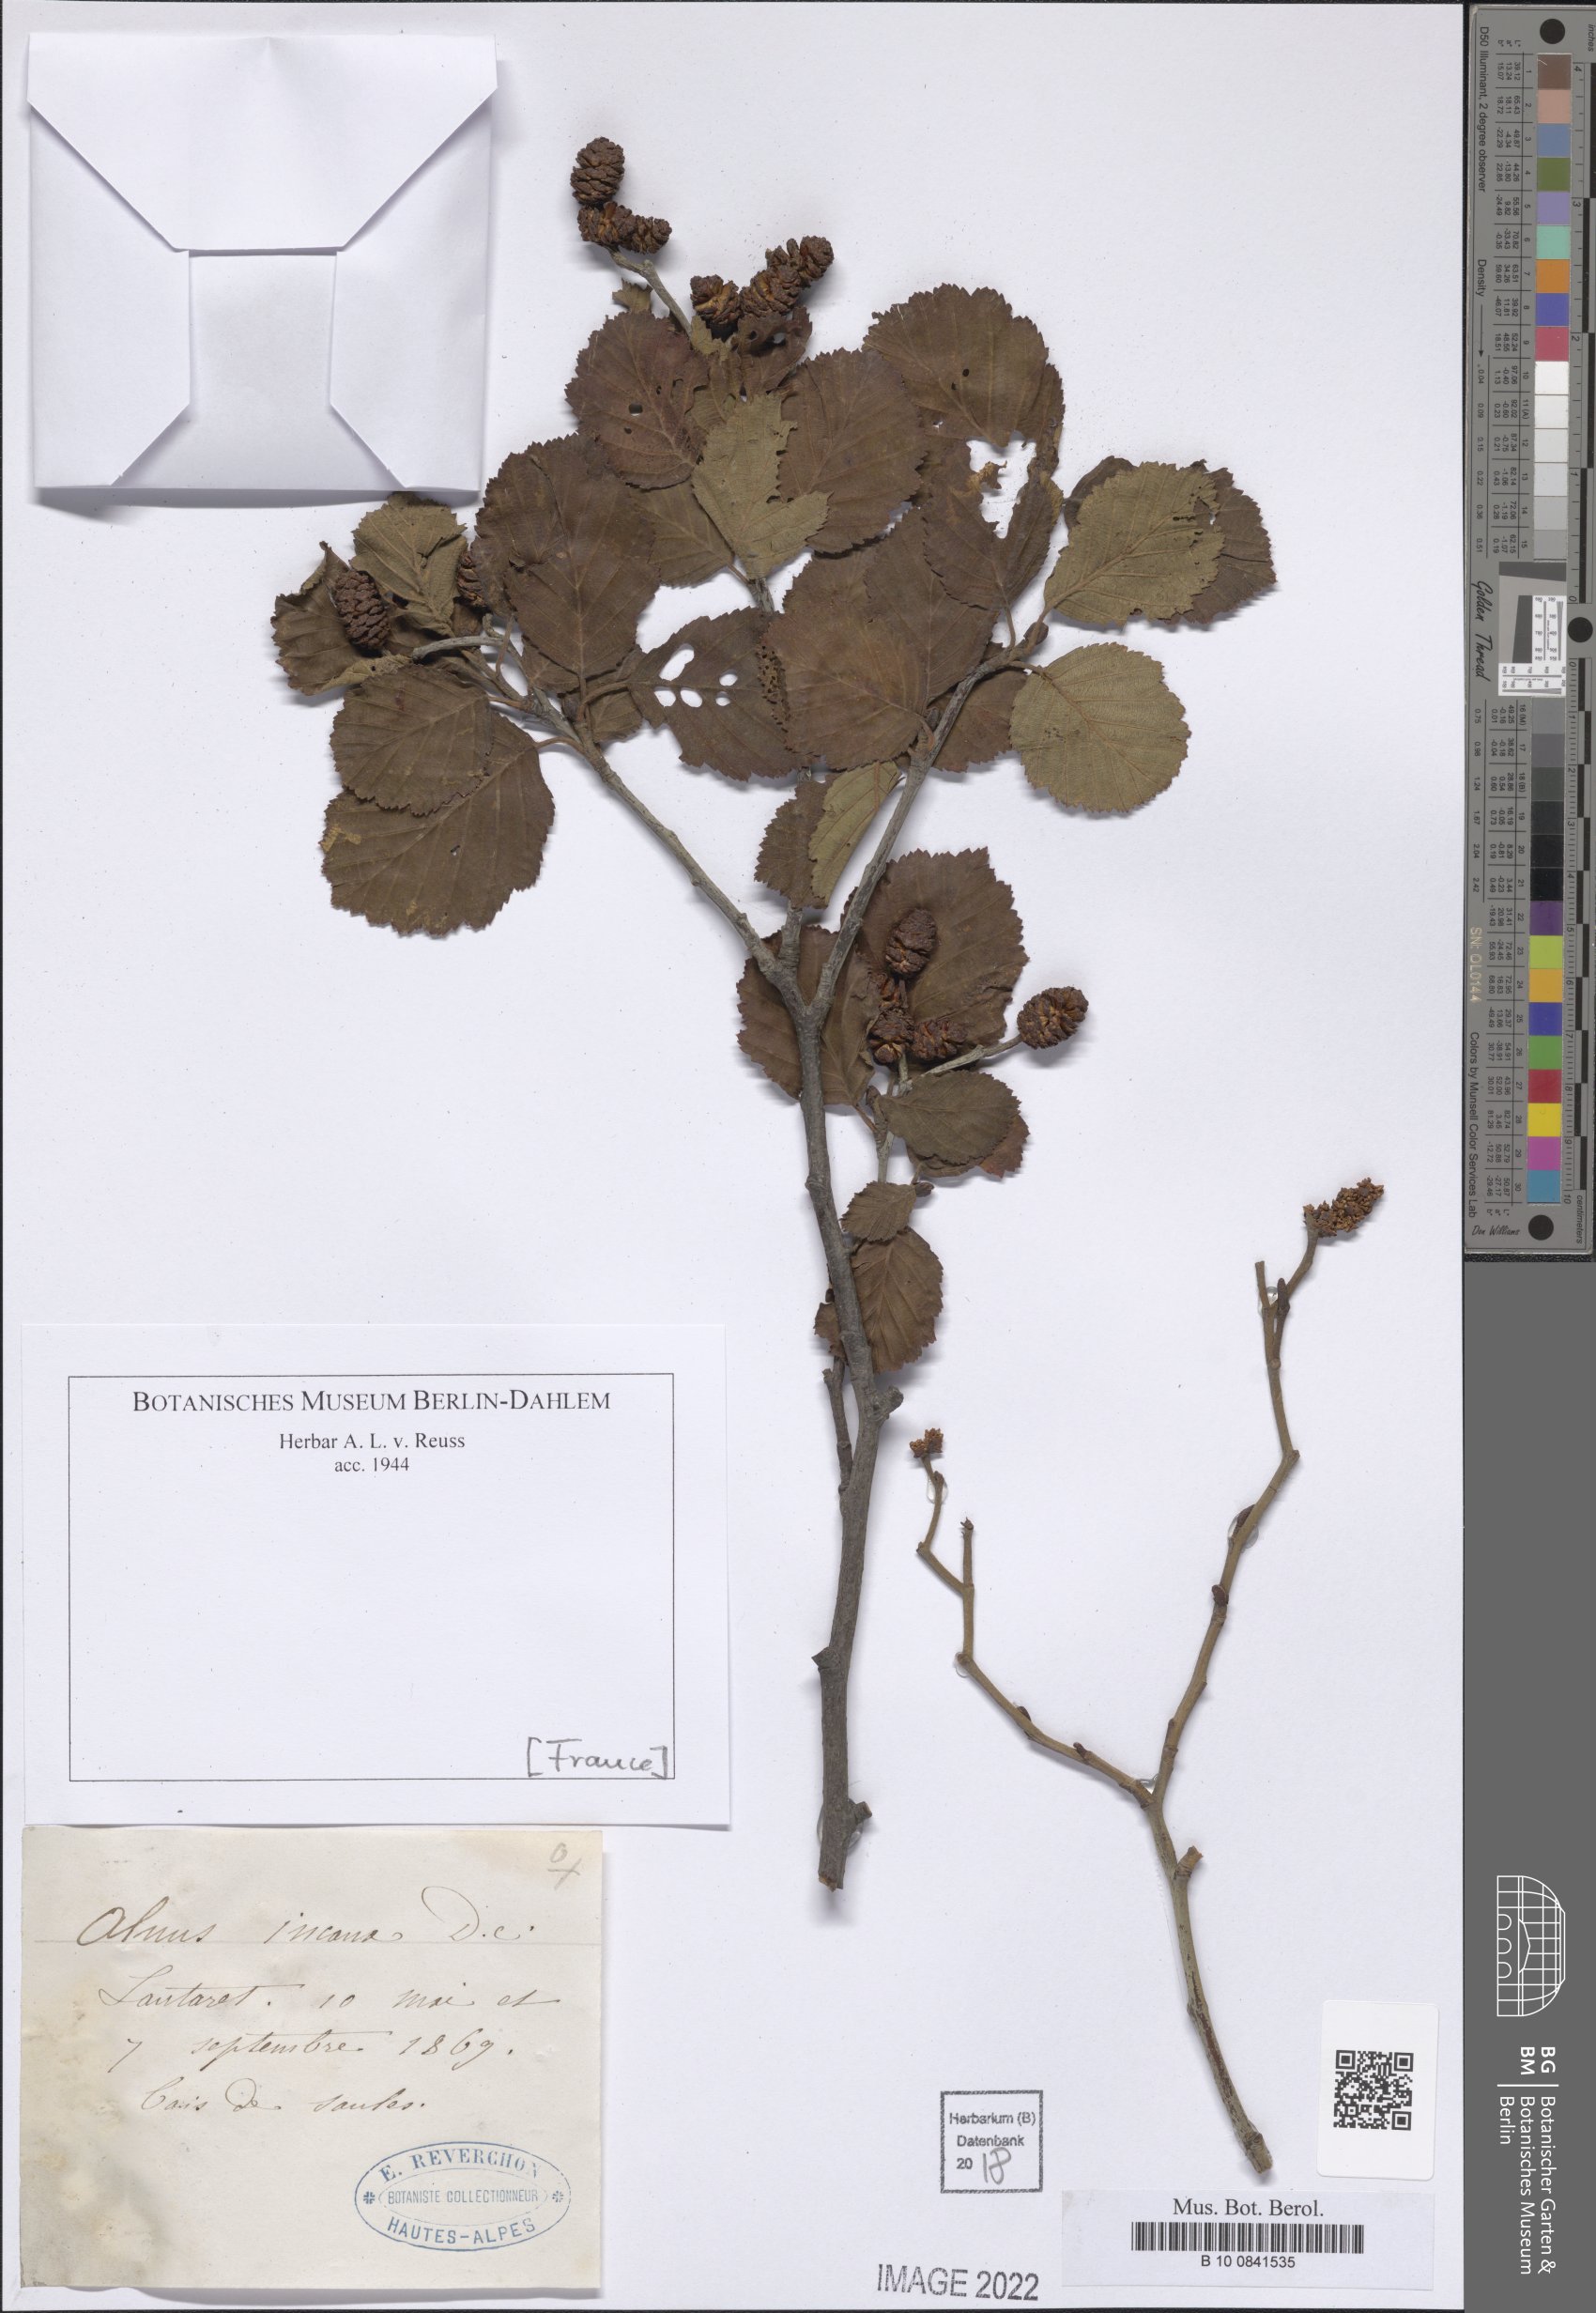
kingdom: Plantae
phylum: Tracheophyta
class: Magnoliopsida
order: Fagales
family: Betulaceae
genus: Alnus
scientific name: Alnus incana
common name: Grey alder
